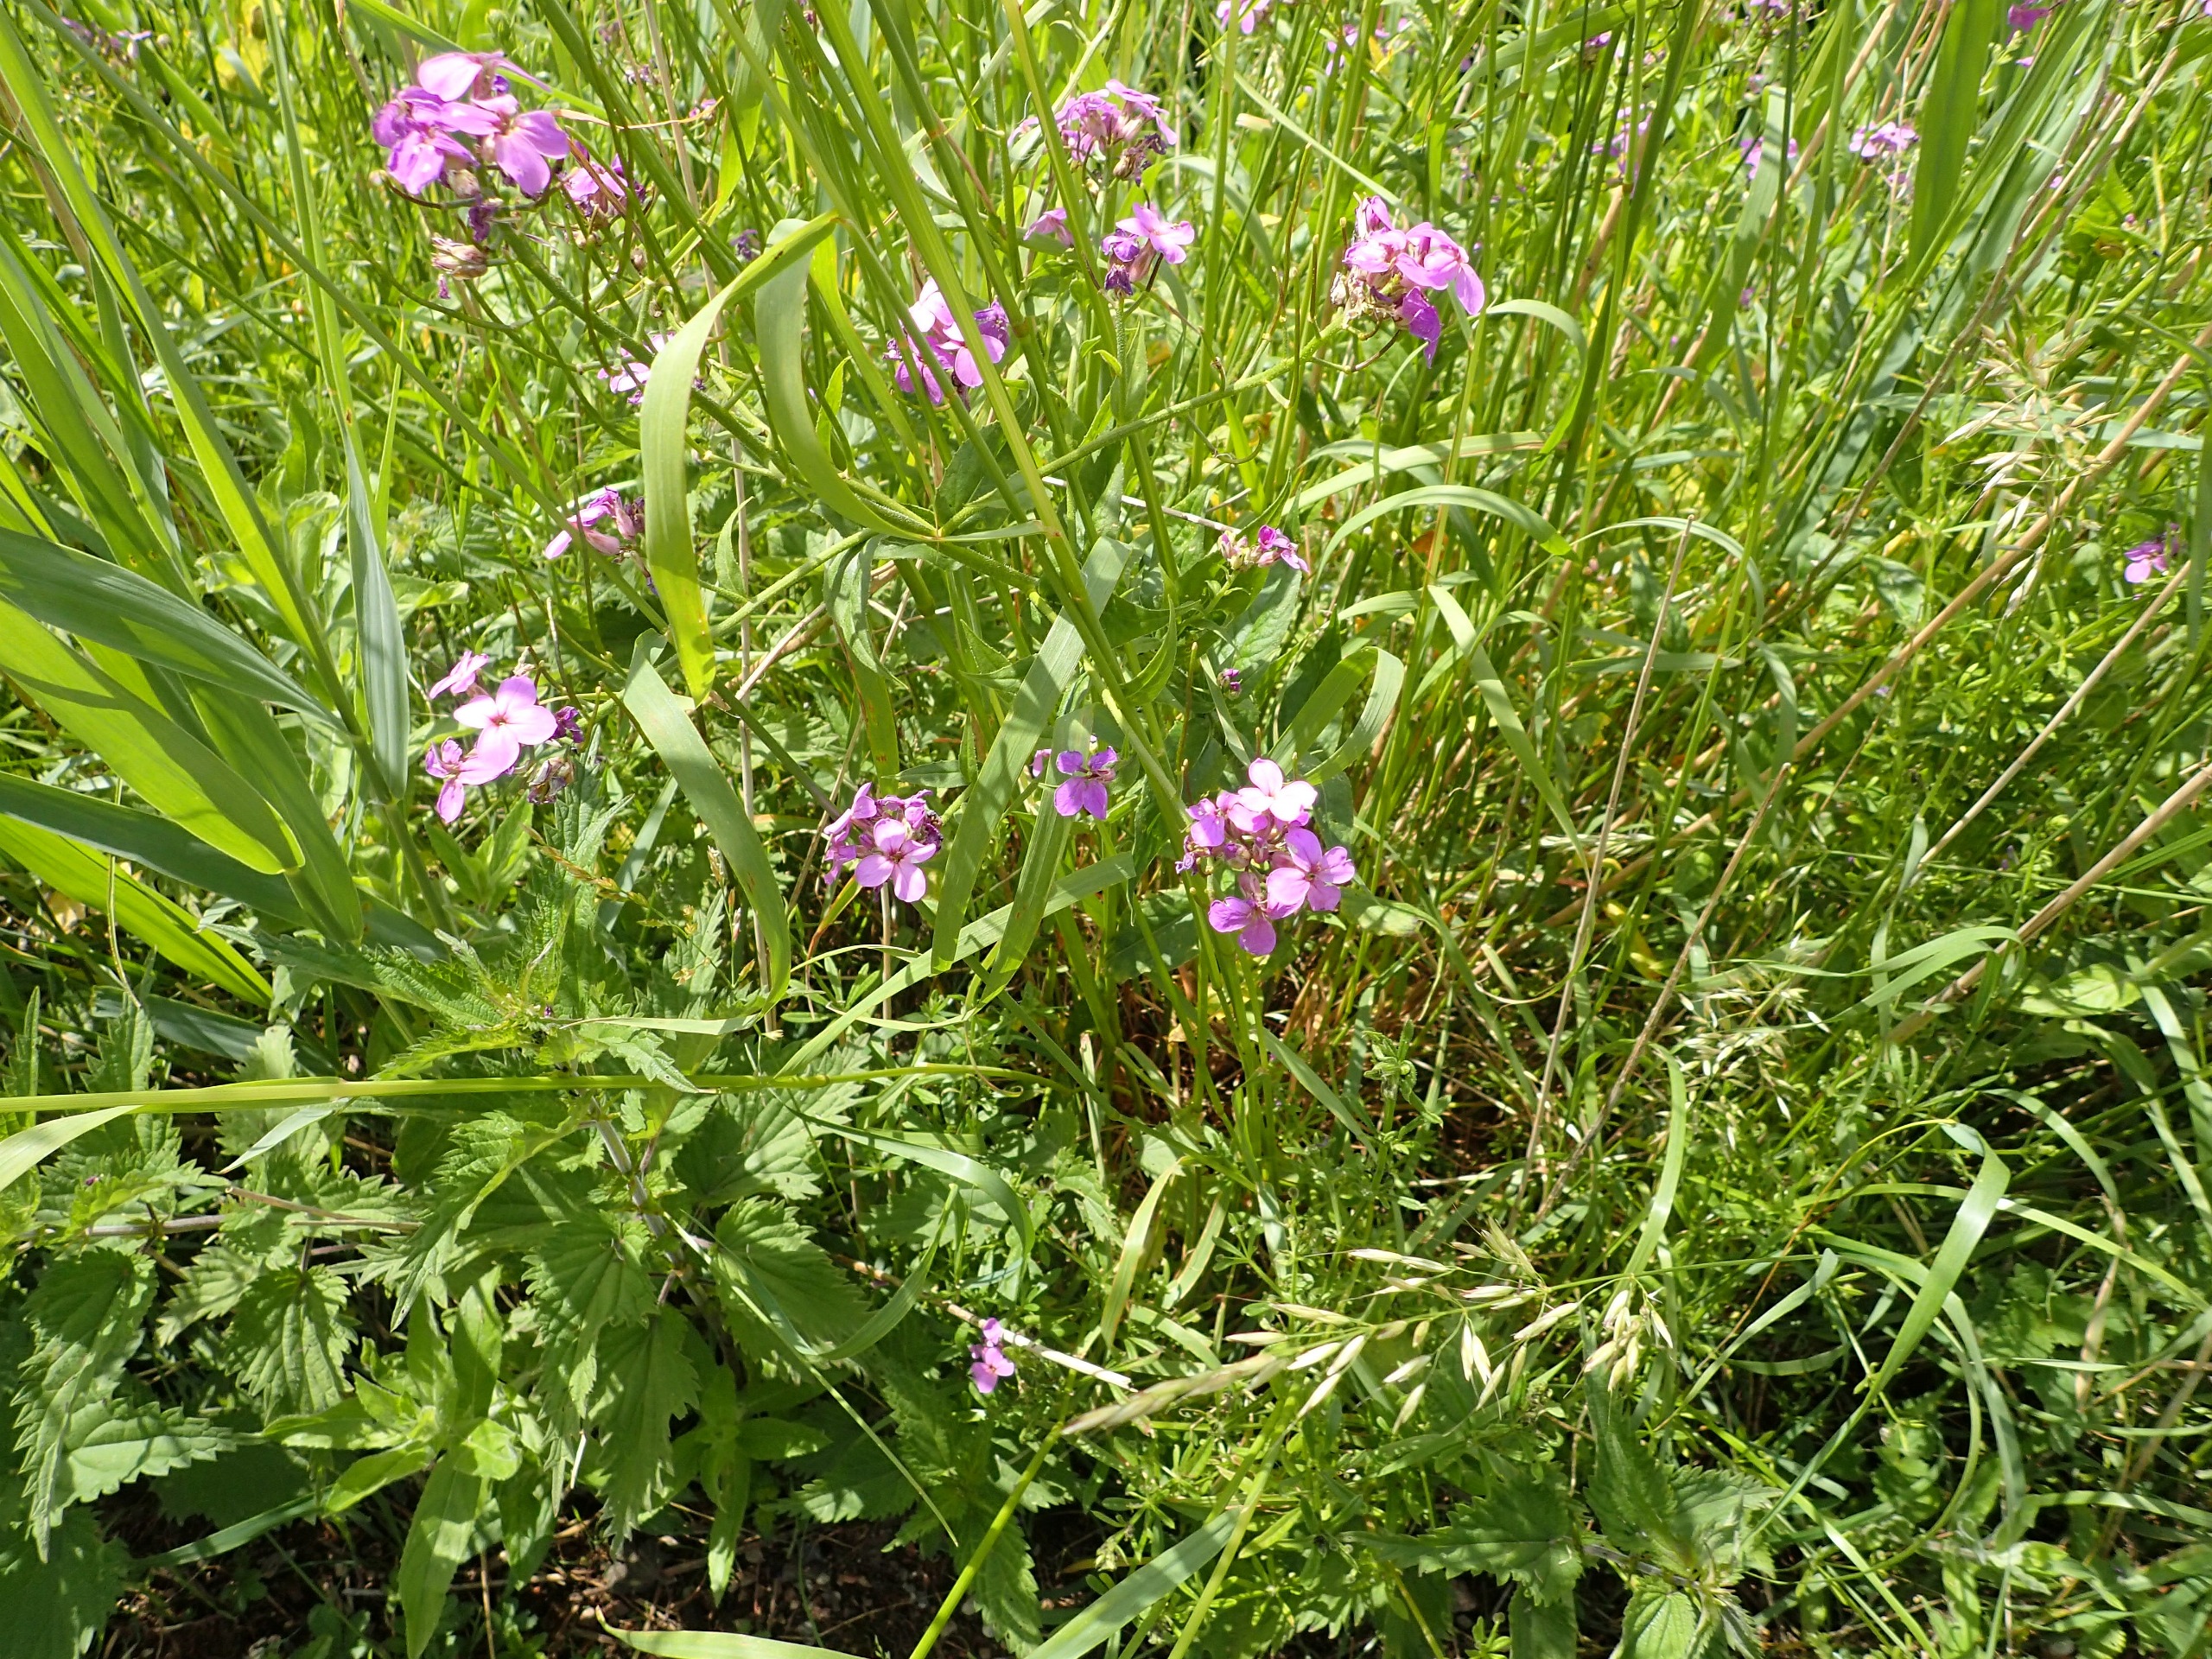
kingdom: Plantae
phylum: Tracheophyta
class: Magnoliopsida
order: Brassicales
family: Brassicaceae
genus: Hesperis
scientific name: Hesperis matronalis
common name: Aftenstjerne
